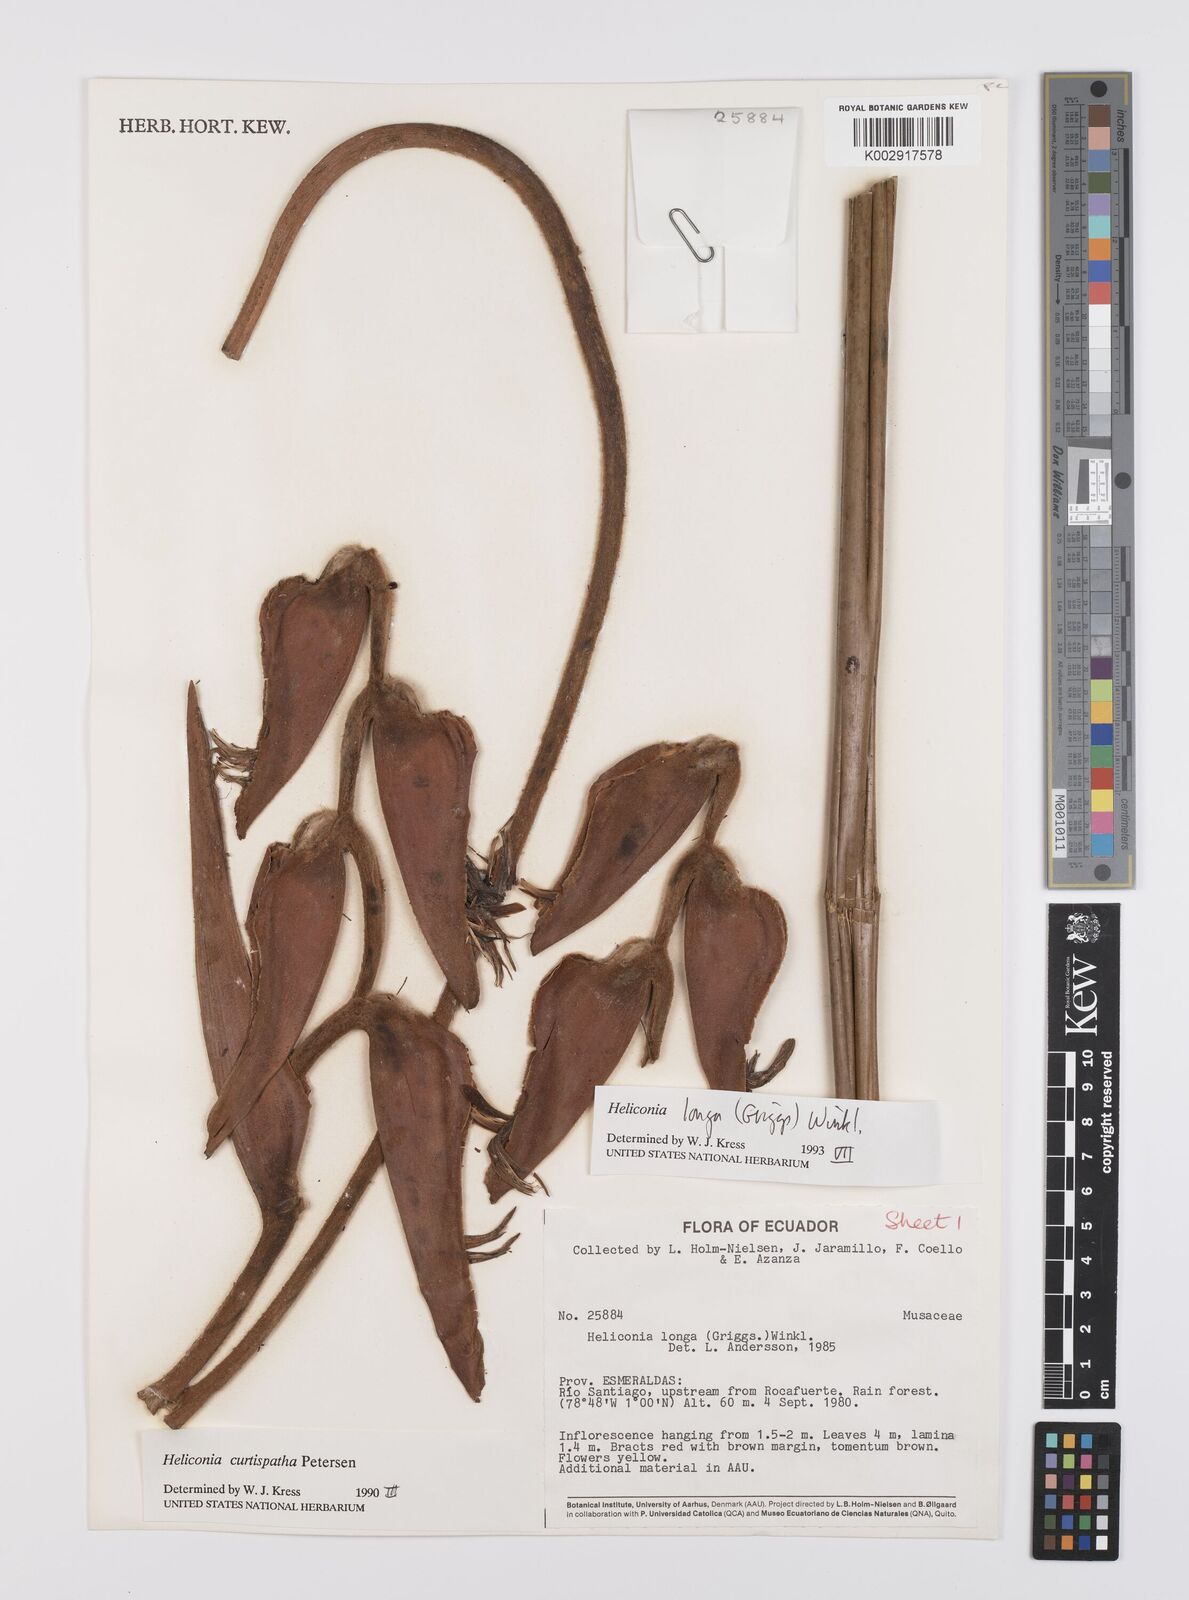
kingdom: Plantae
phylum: Tracheophyta
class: Liliopsida
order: Zingiberales
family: Heliconiaceae
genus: Heliconia
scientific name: Heliconia longa
